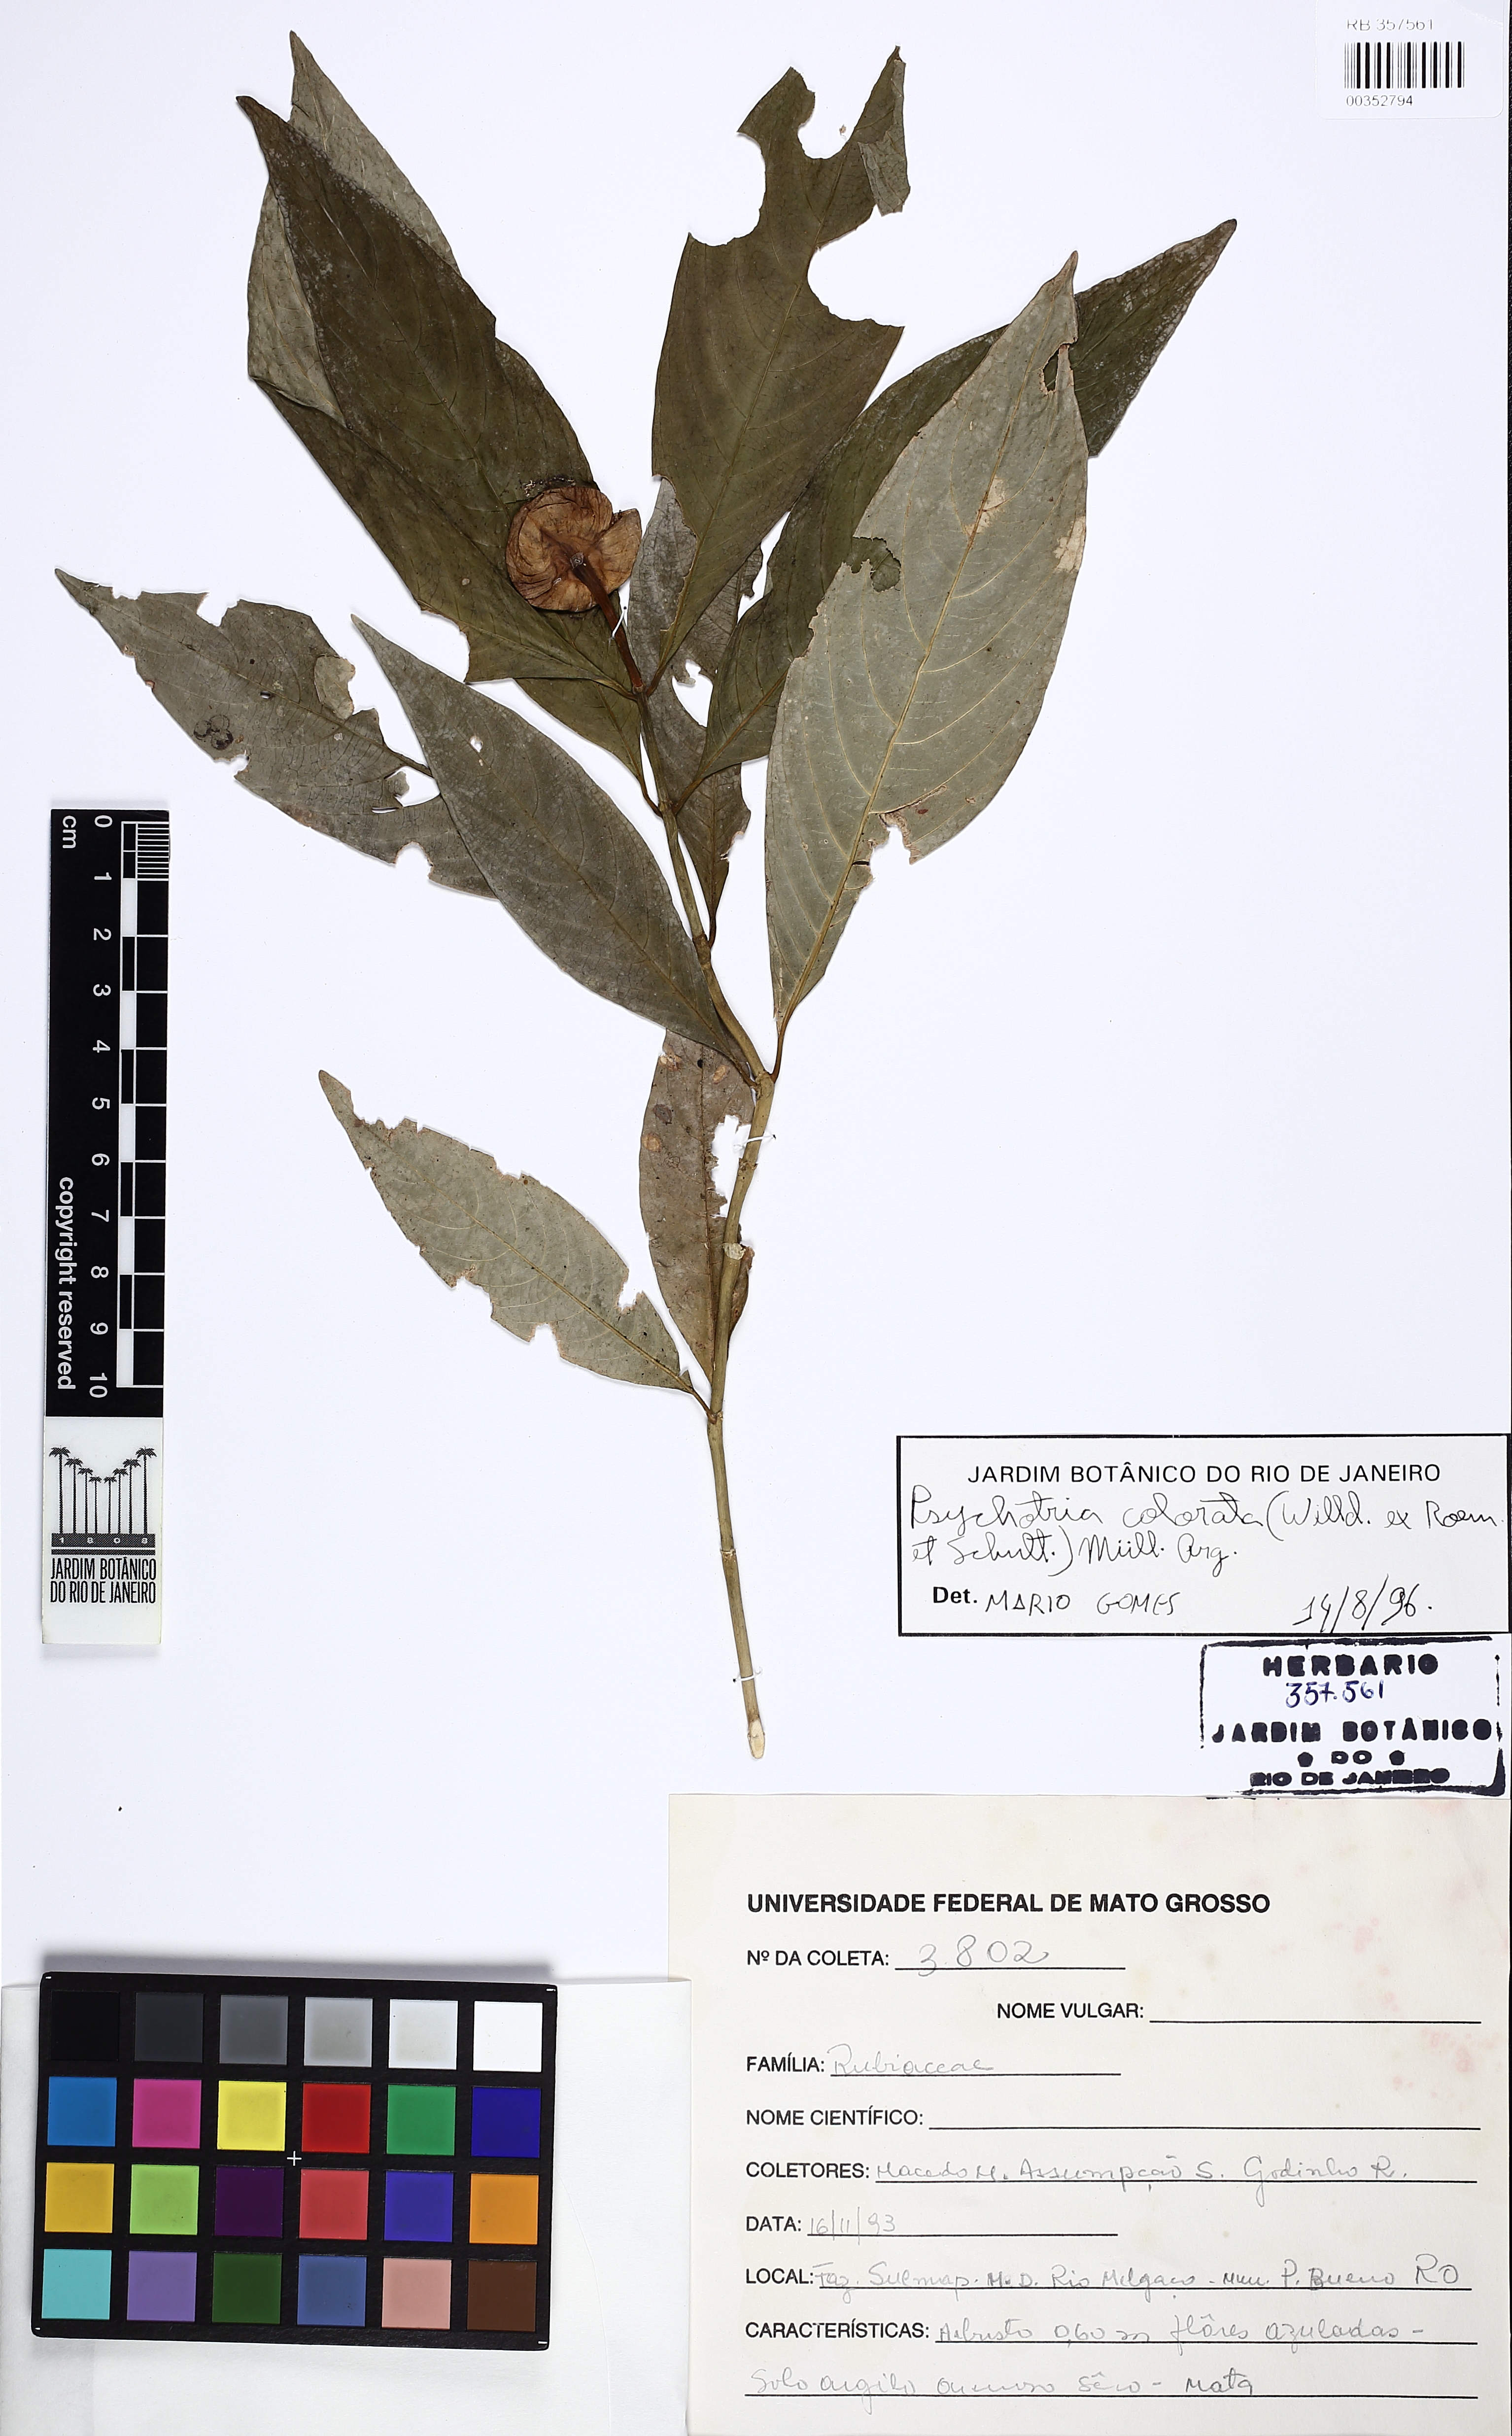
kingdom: Plantae
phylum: Tracheophyta
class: Magnoliopsida
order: Gentianales
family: Rubiaceae
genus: Palicourea
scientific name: Palicourea colorata
